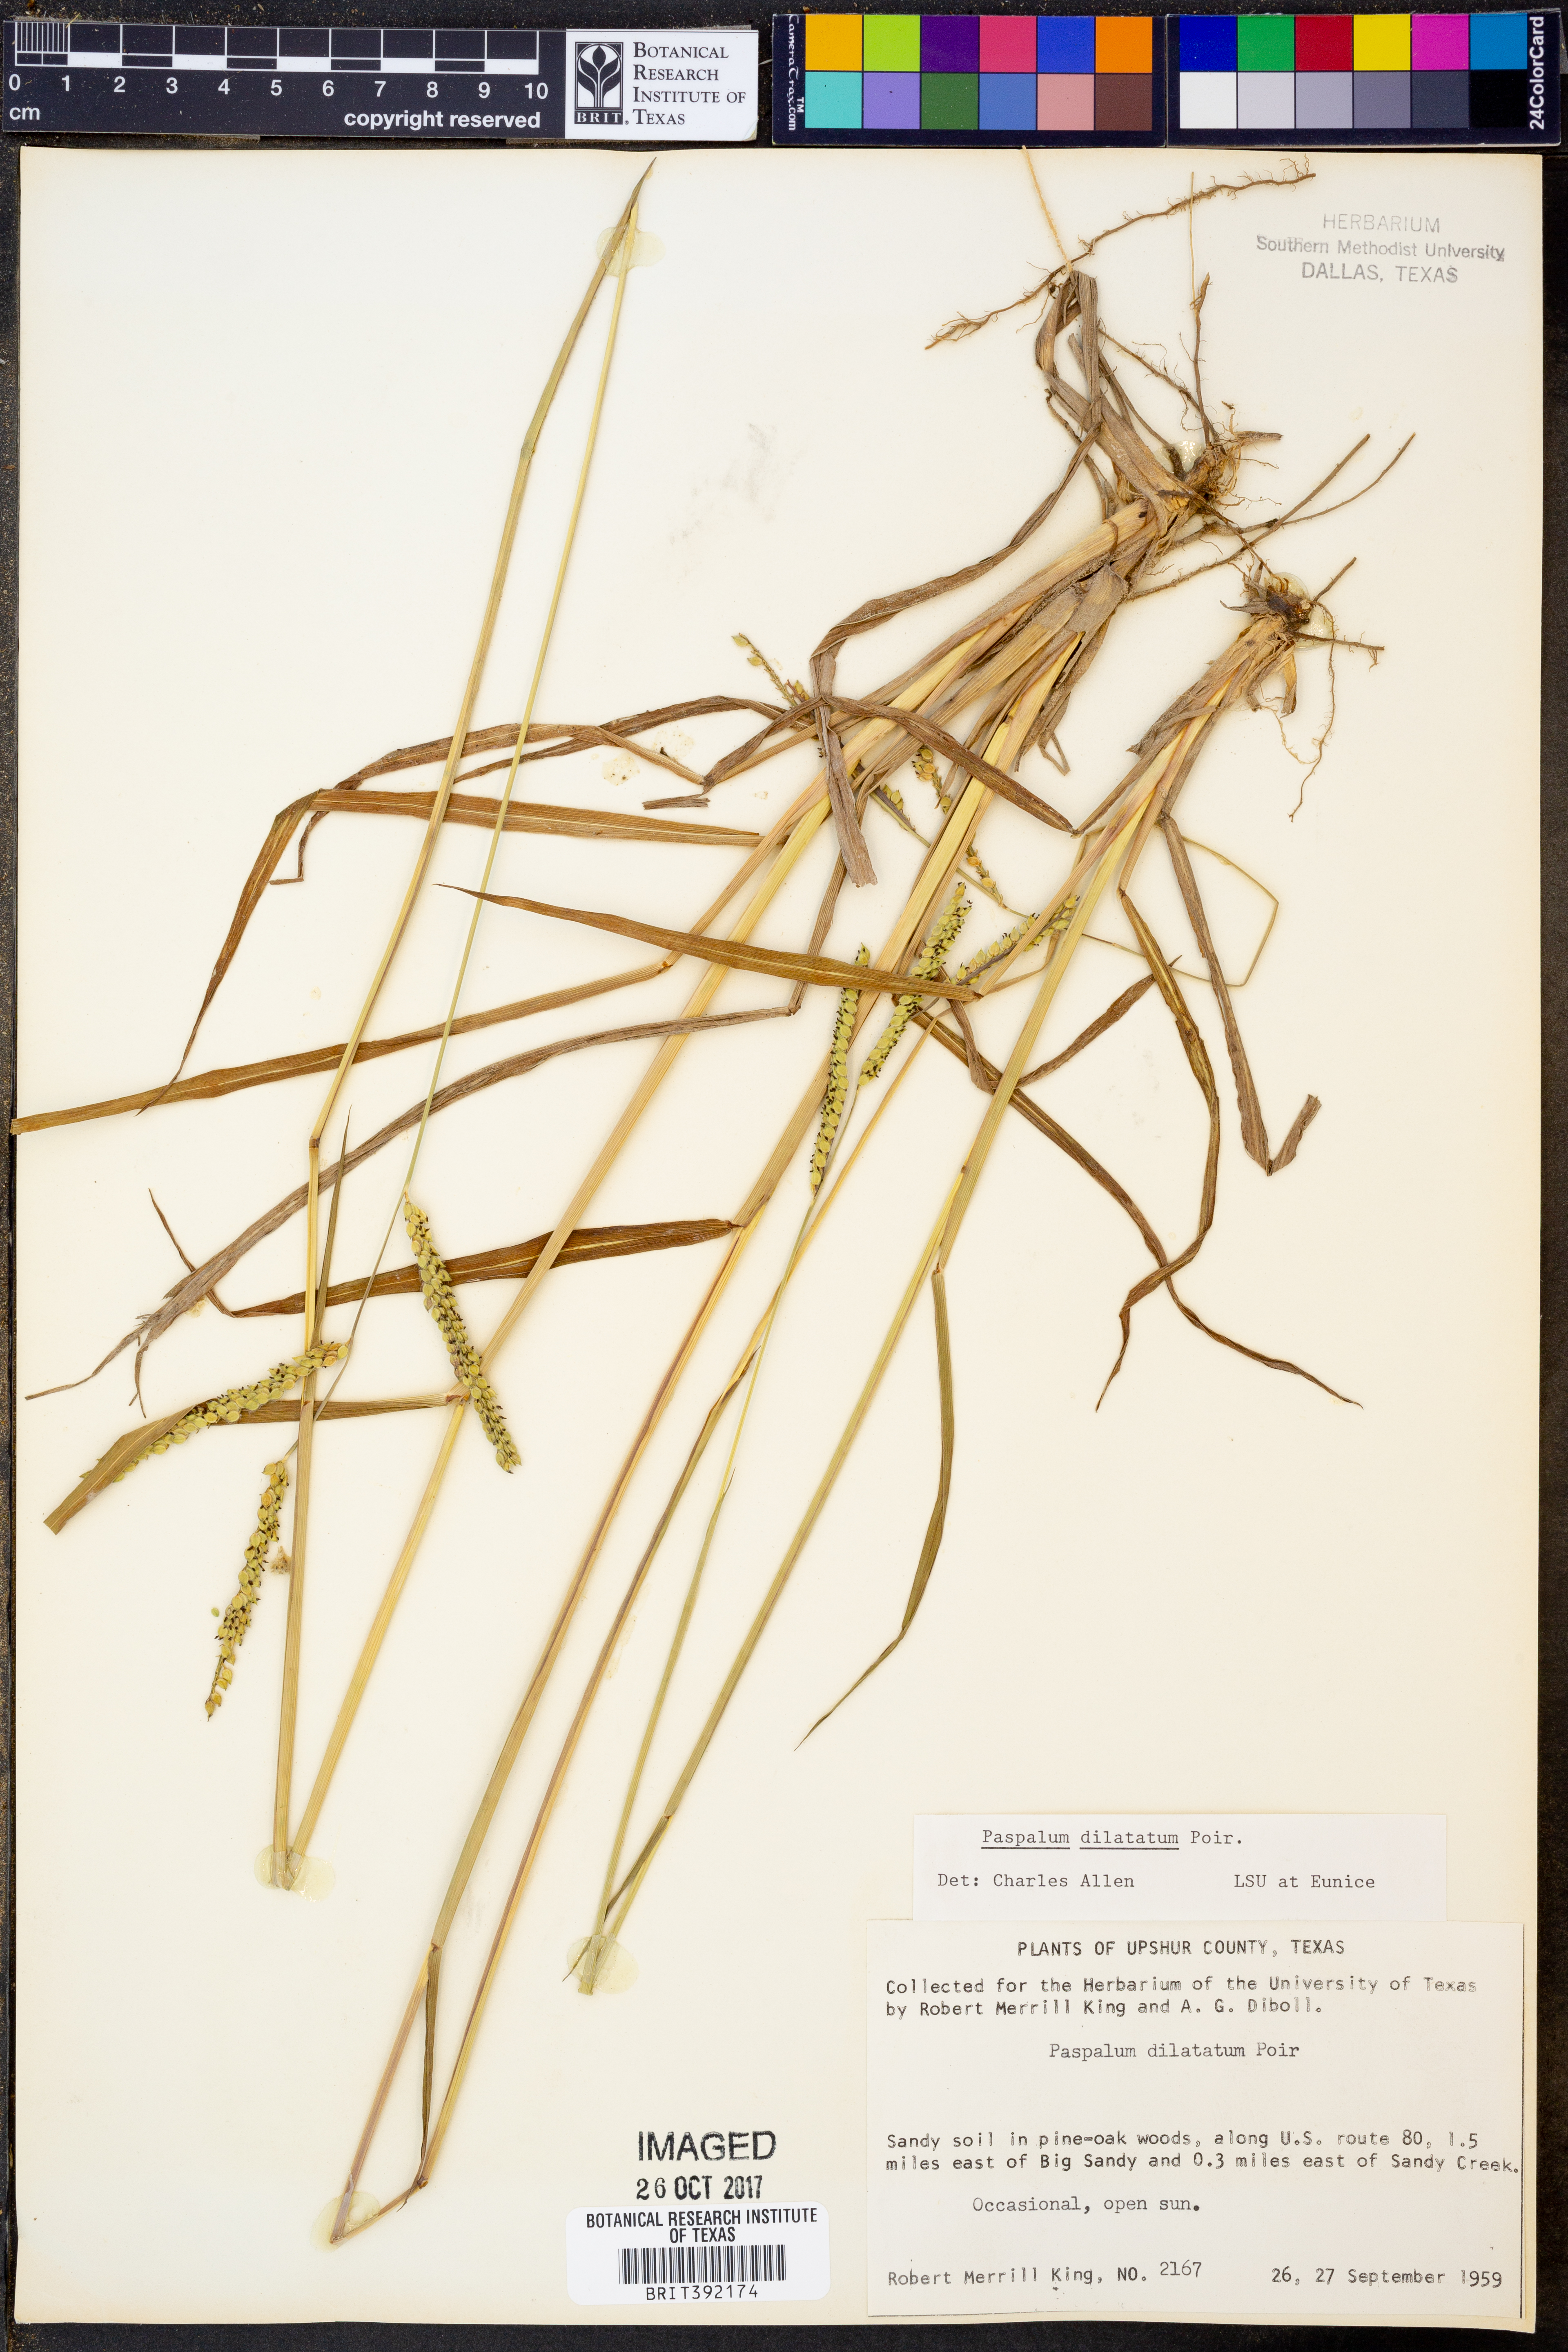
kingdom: Plantae
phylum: Tracheophyta
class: Liliopsida
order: Poales
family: Poaceae
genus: Paspalum
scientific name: Paspalum dilatatum
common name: Dallisgrass
